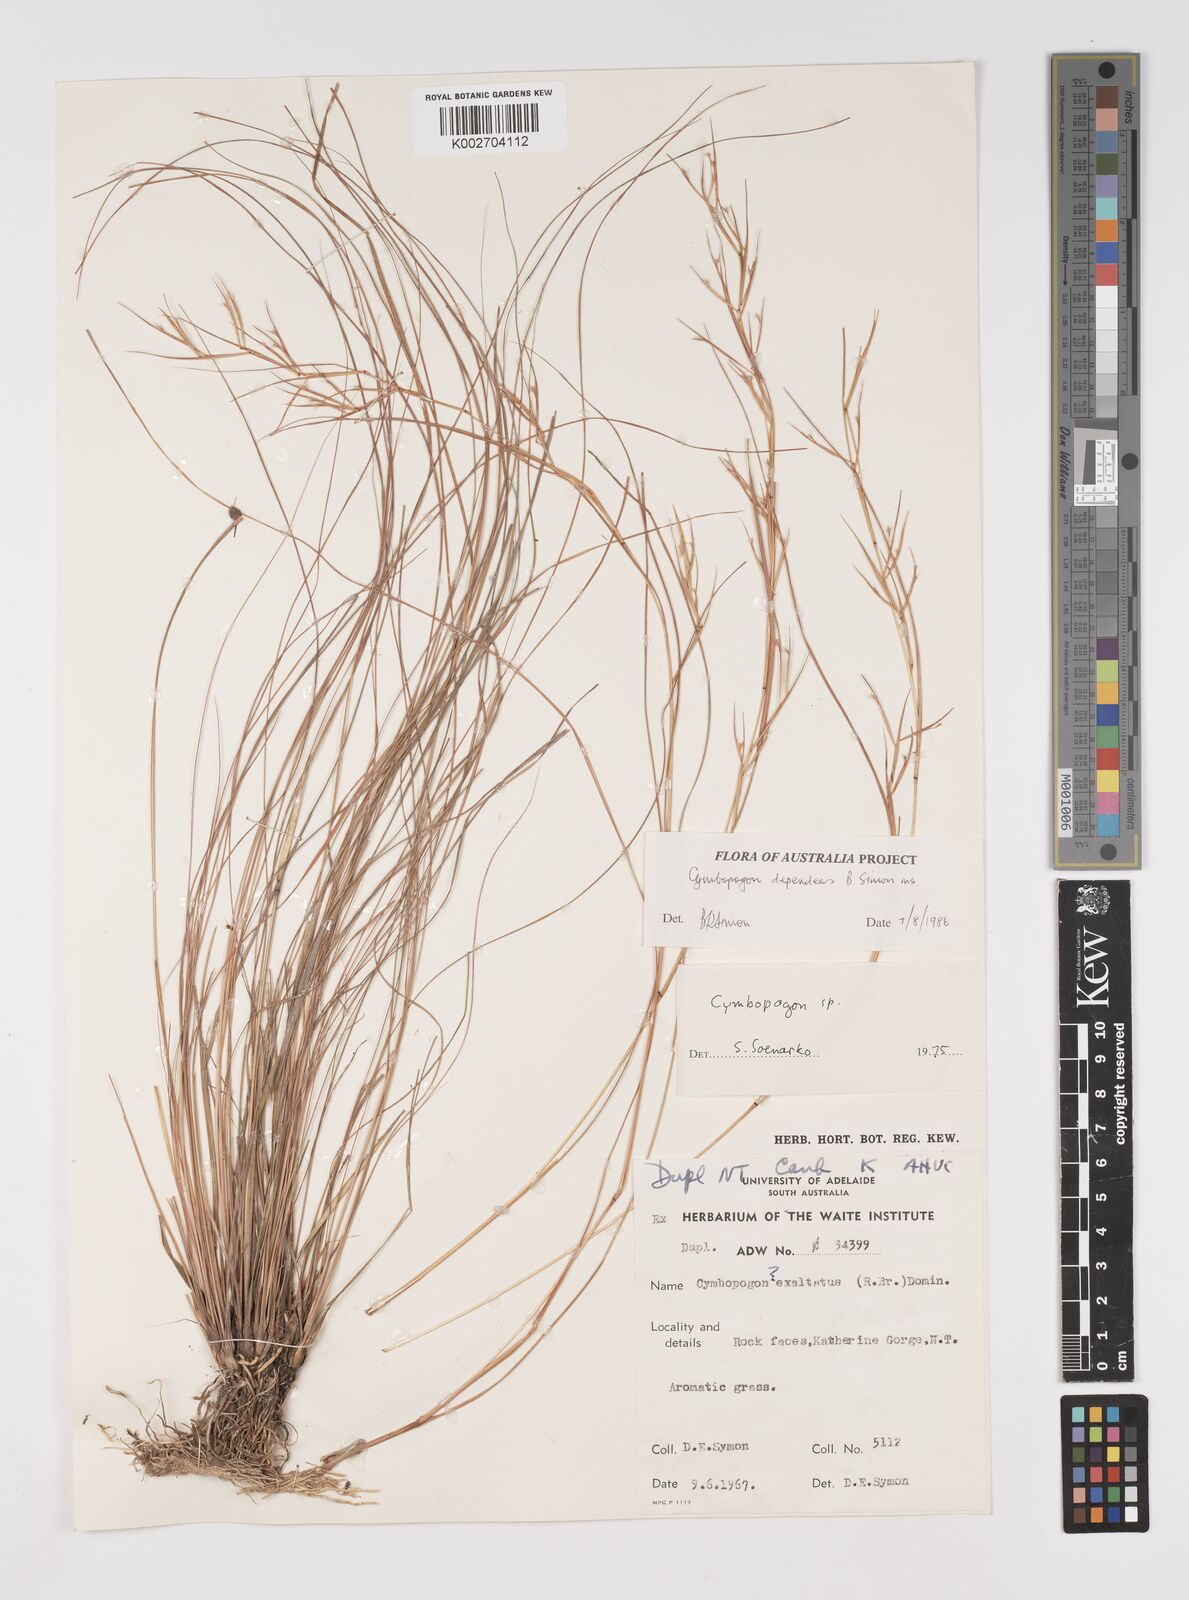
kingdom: Plantae
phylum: Tracheophyta
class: Liliopsida
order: Poales
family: Poaceae
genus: Cymbopogon
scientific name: Cymbopogon dependens
